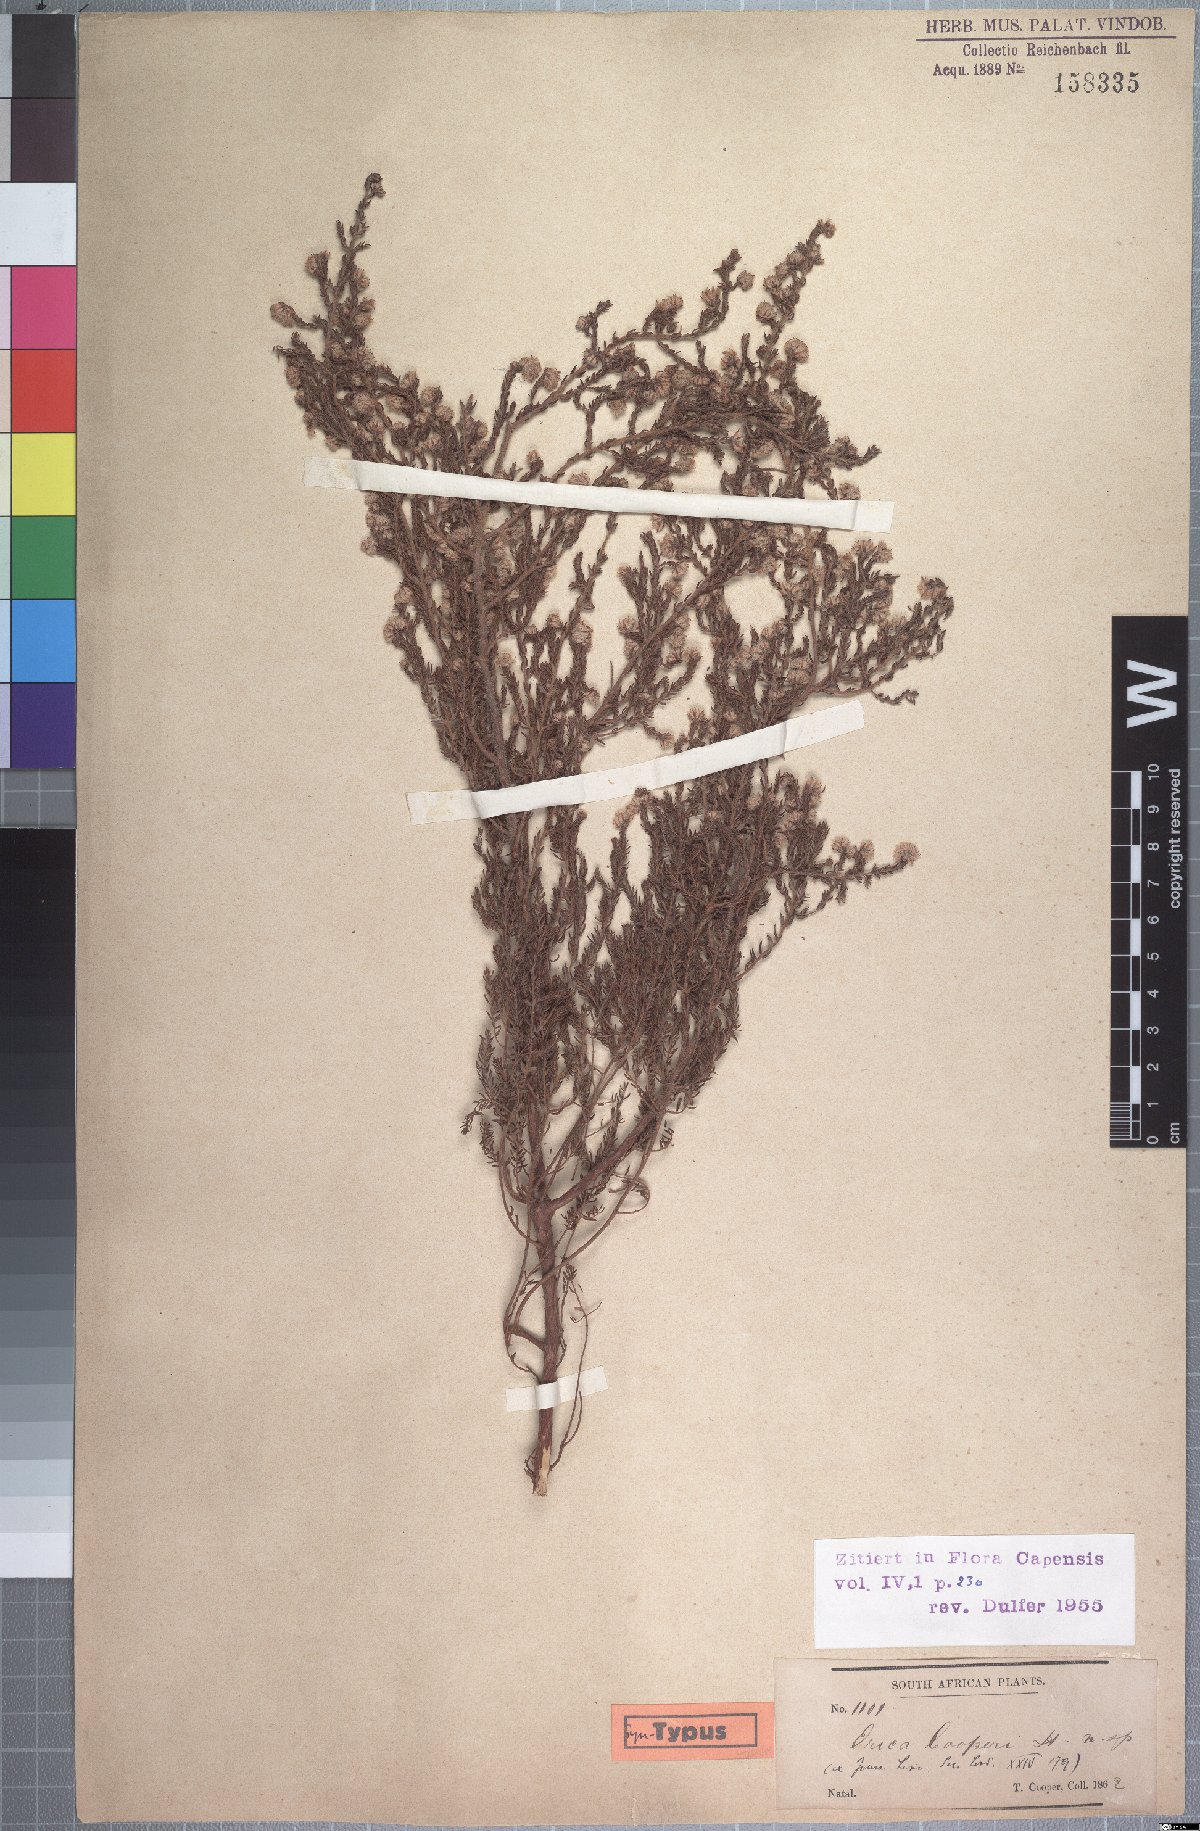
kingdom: Plantae
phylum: Tracheophyta
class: Magnoliopsida
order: Ericales
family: Ericaceae
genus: Erica
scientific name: Erica cooperi
